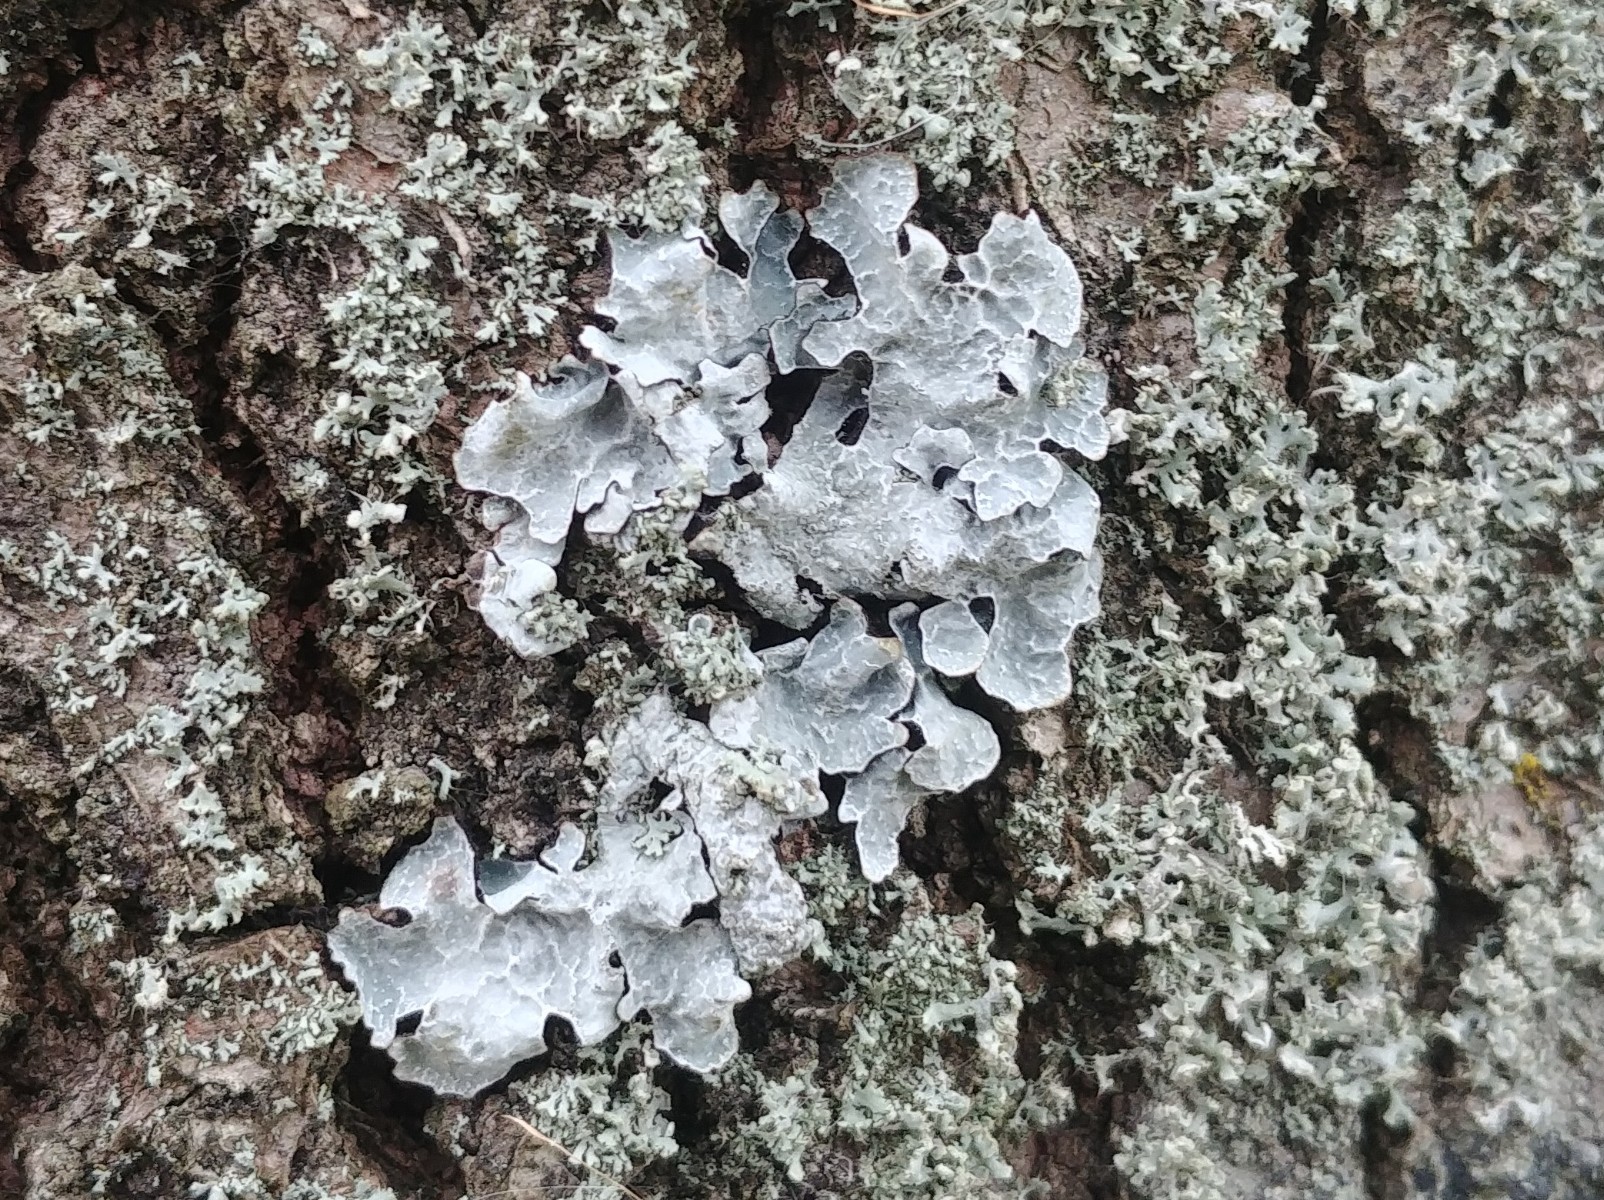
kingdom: Fungi
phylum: Ascomycota
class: Lecanoromycetes
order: Lecanorales
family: Parmeliaceae
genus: Parmelia
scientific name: Parmelia sulcata
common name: rynket skållav
